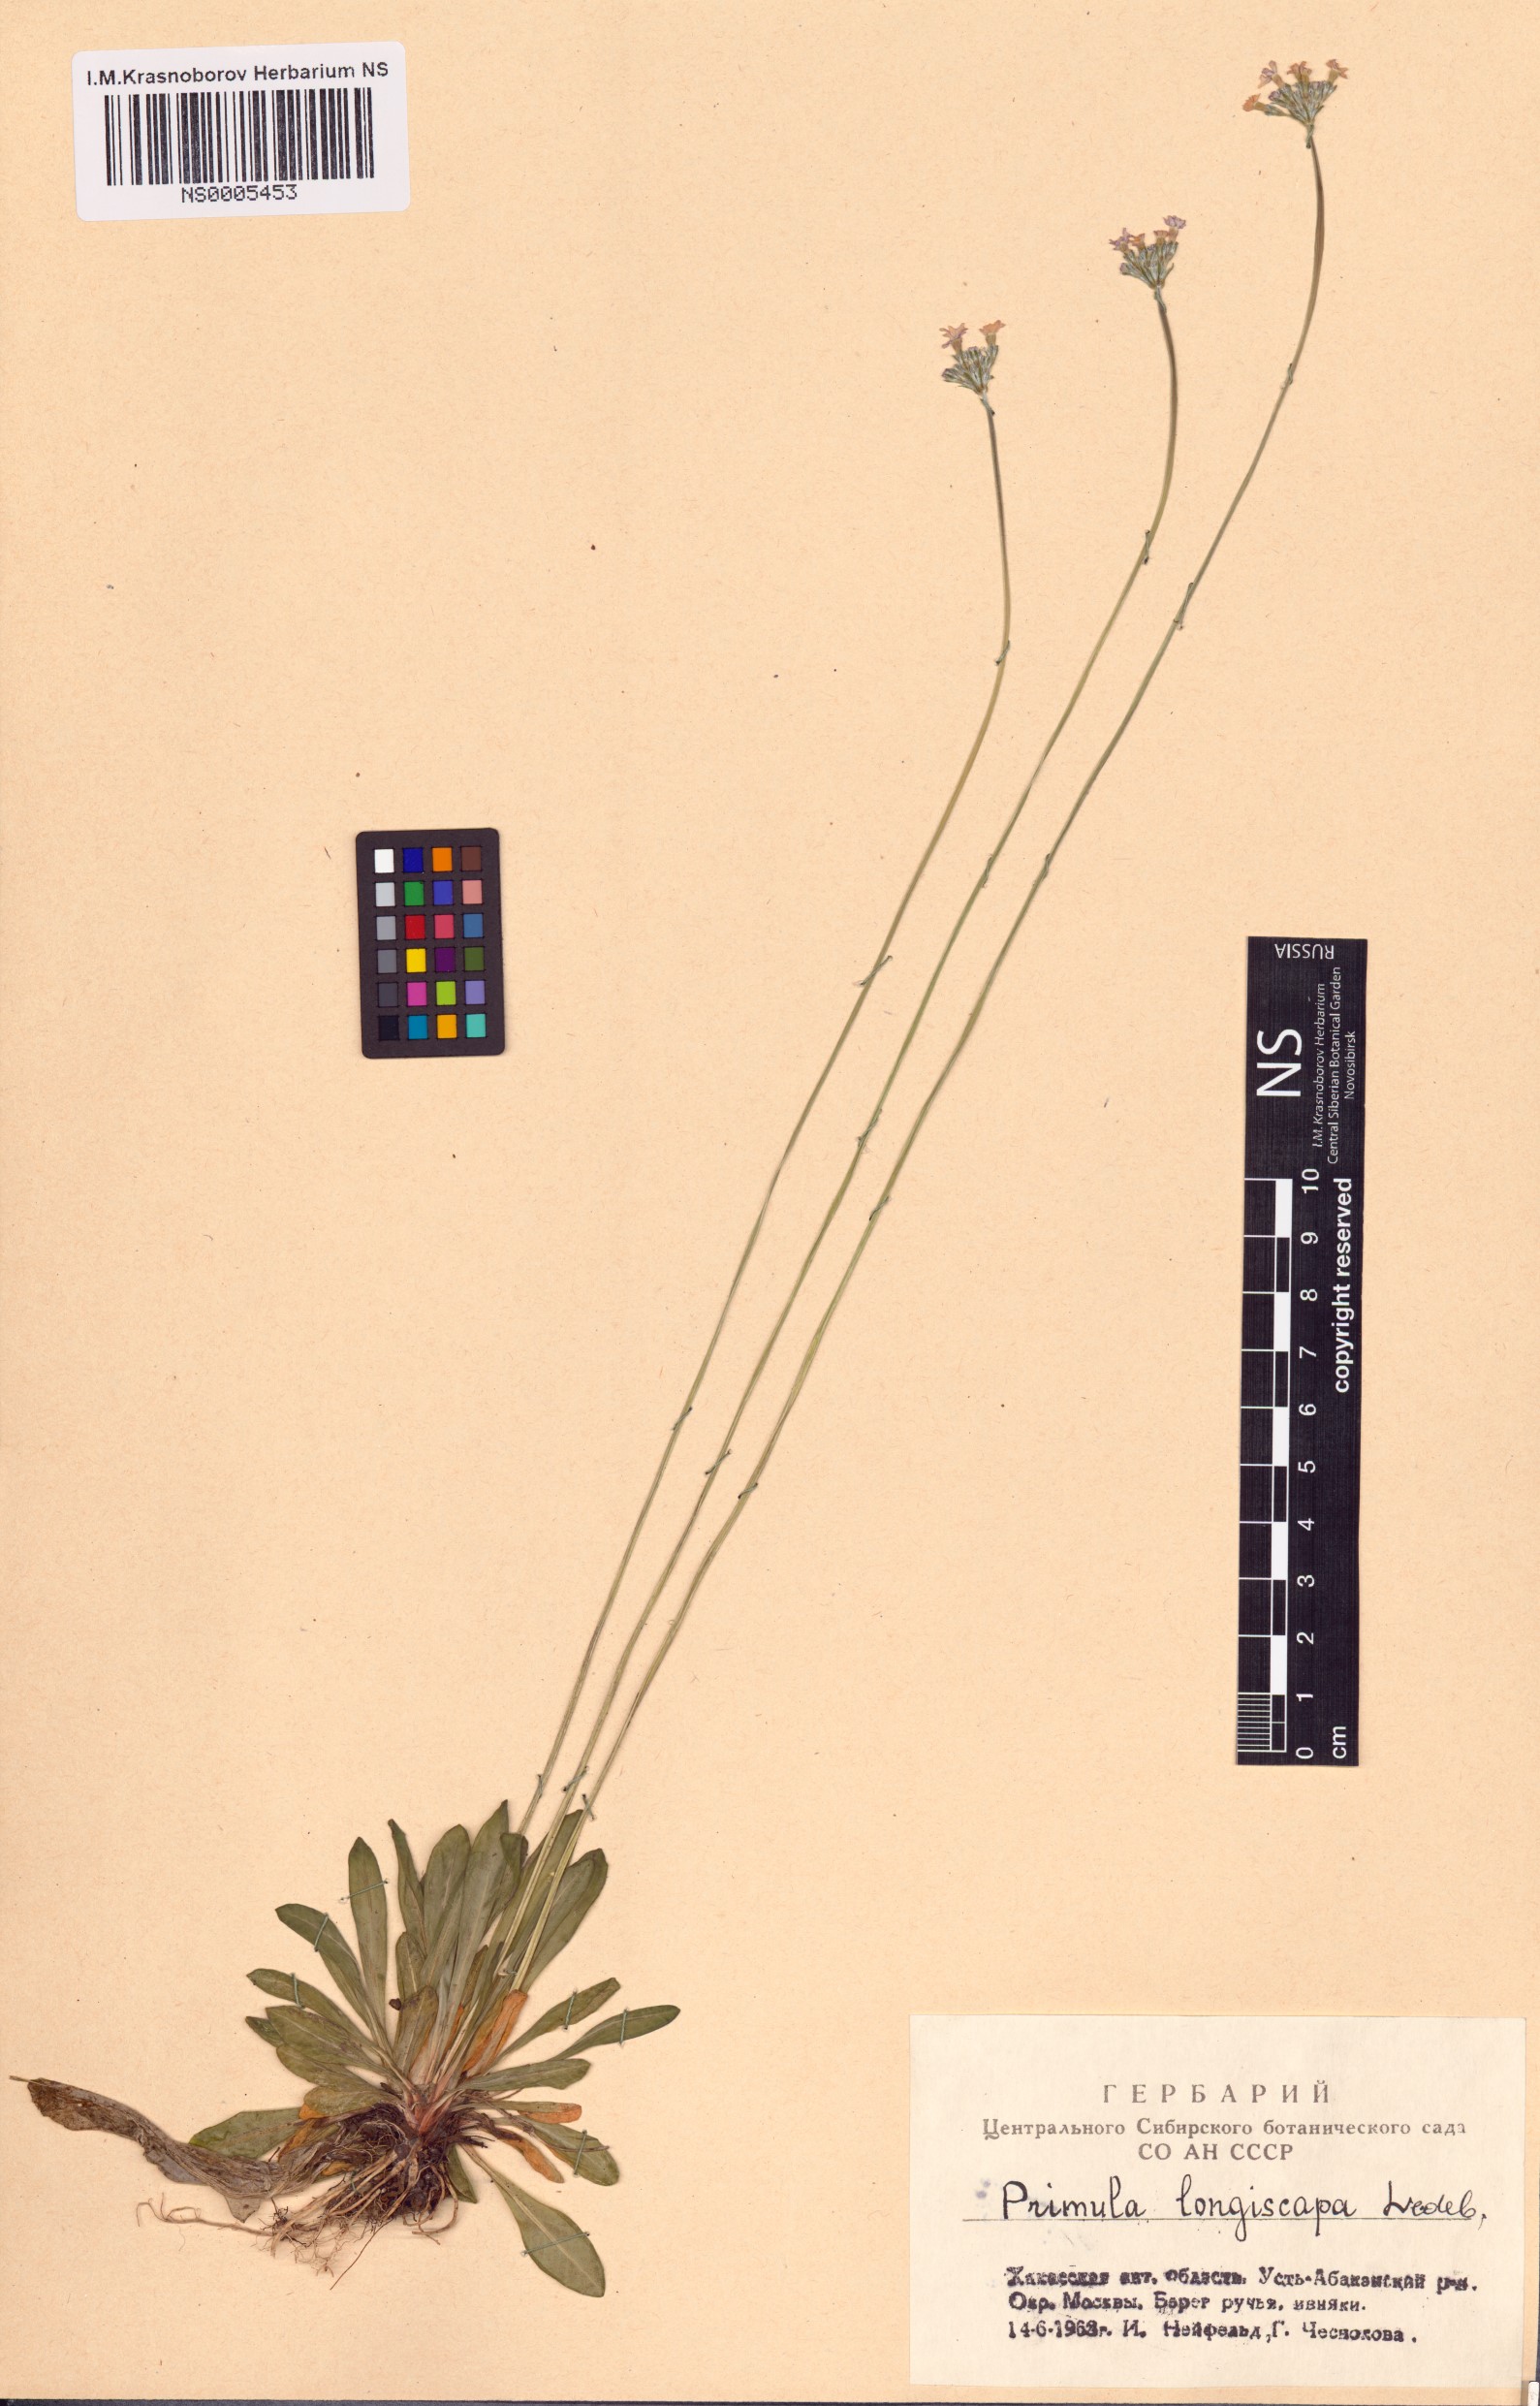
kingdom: Plantae
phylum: Tracheophyta
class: Magnoliopsida
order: Ericales
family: Primulaceae
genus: Primula
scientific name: Primula longiscapa
